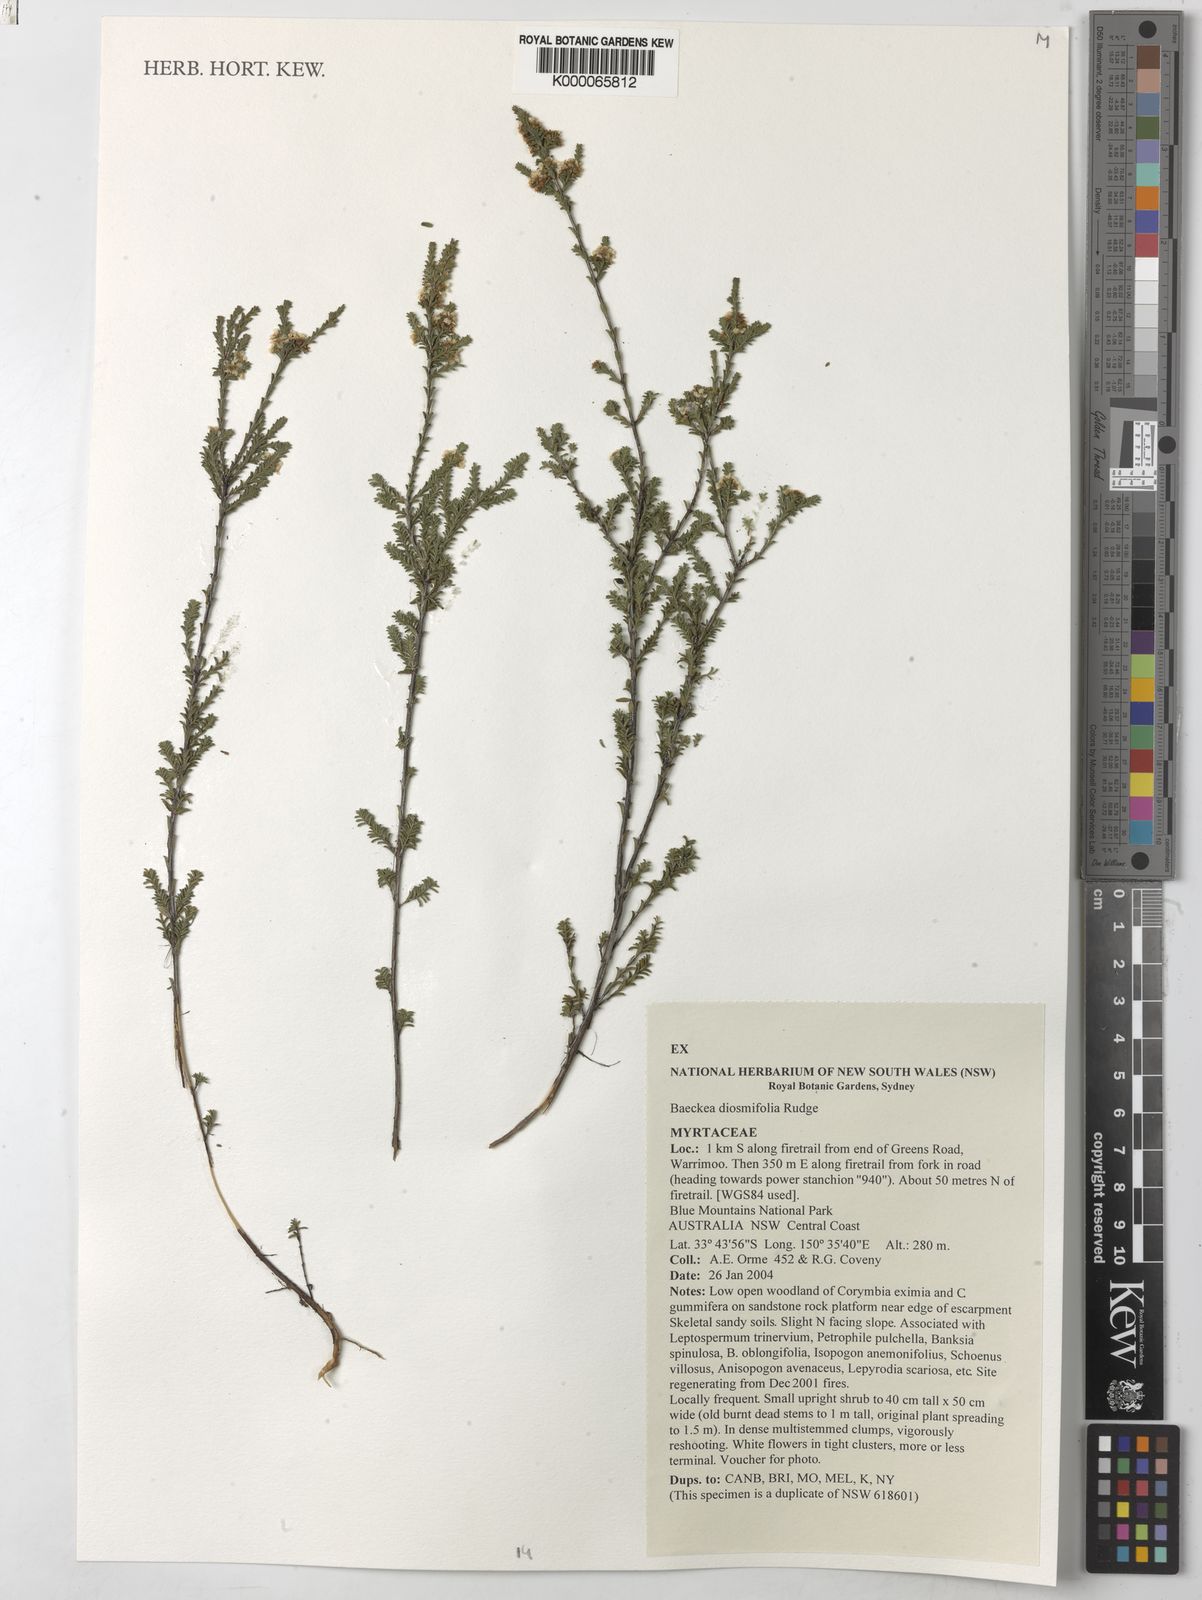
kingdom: Plantae
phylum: Tracheophyta
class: Magnoliopsida
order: Myrtales
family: Myrtaceae
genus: Baeckea
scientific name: Baeckea diosmifolia
